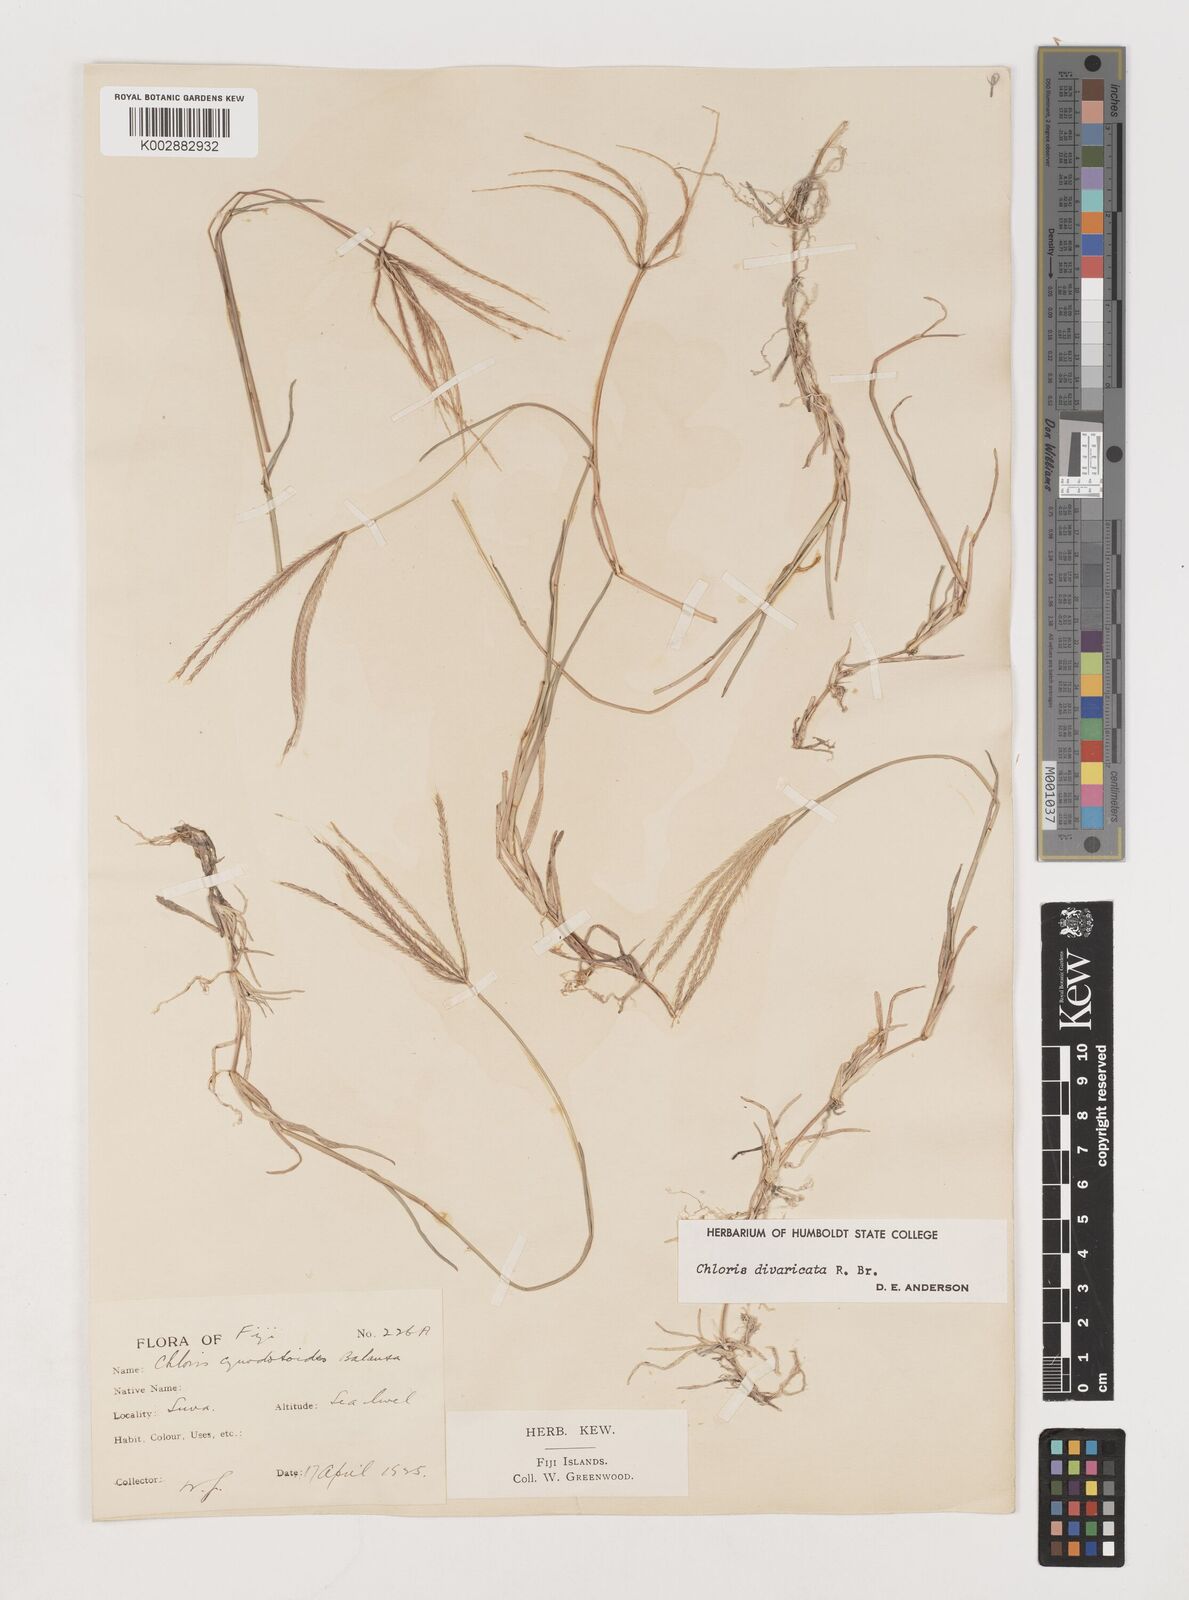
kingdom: Plantae
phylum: Tracheophyta
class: Liliopsida
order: Poales
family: Poaceae
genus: Chloris
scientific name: Chloris divaricata
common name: Spreading windmill grass
